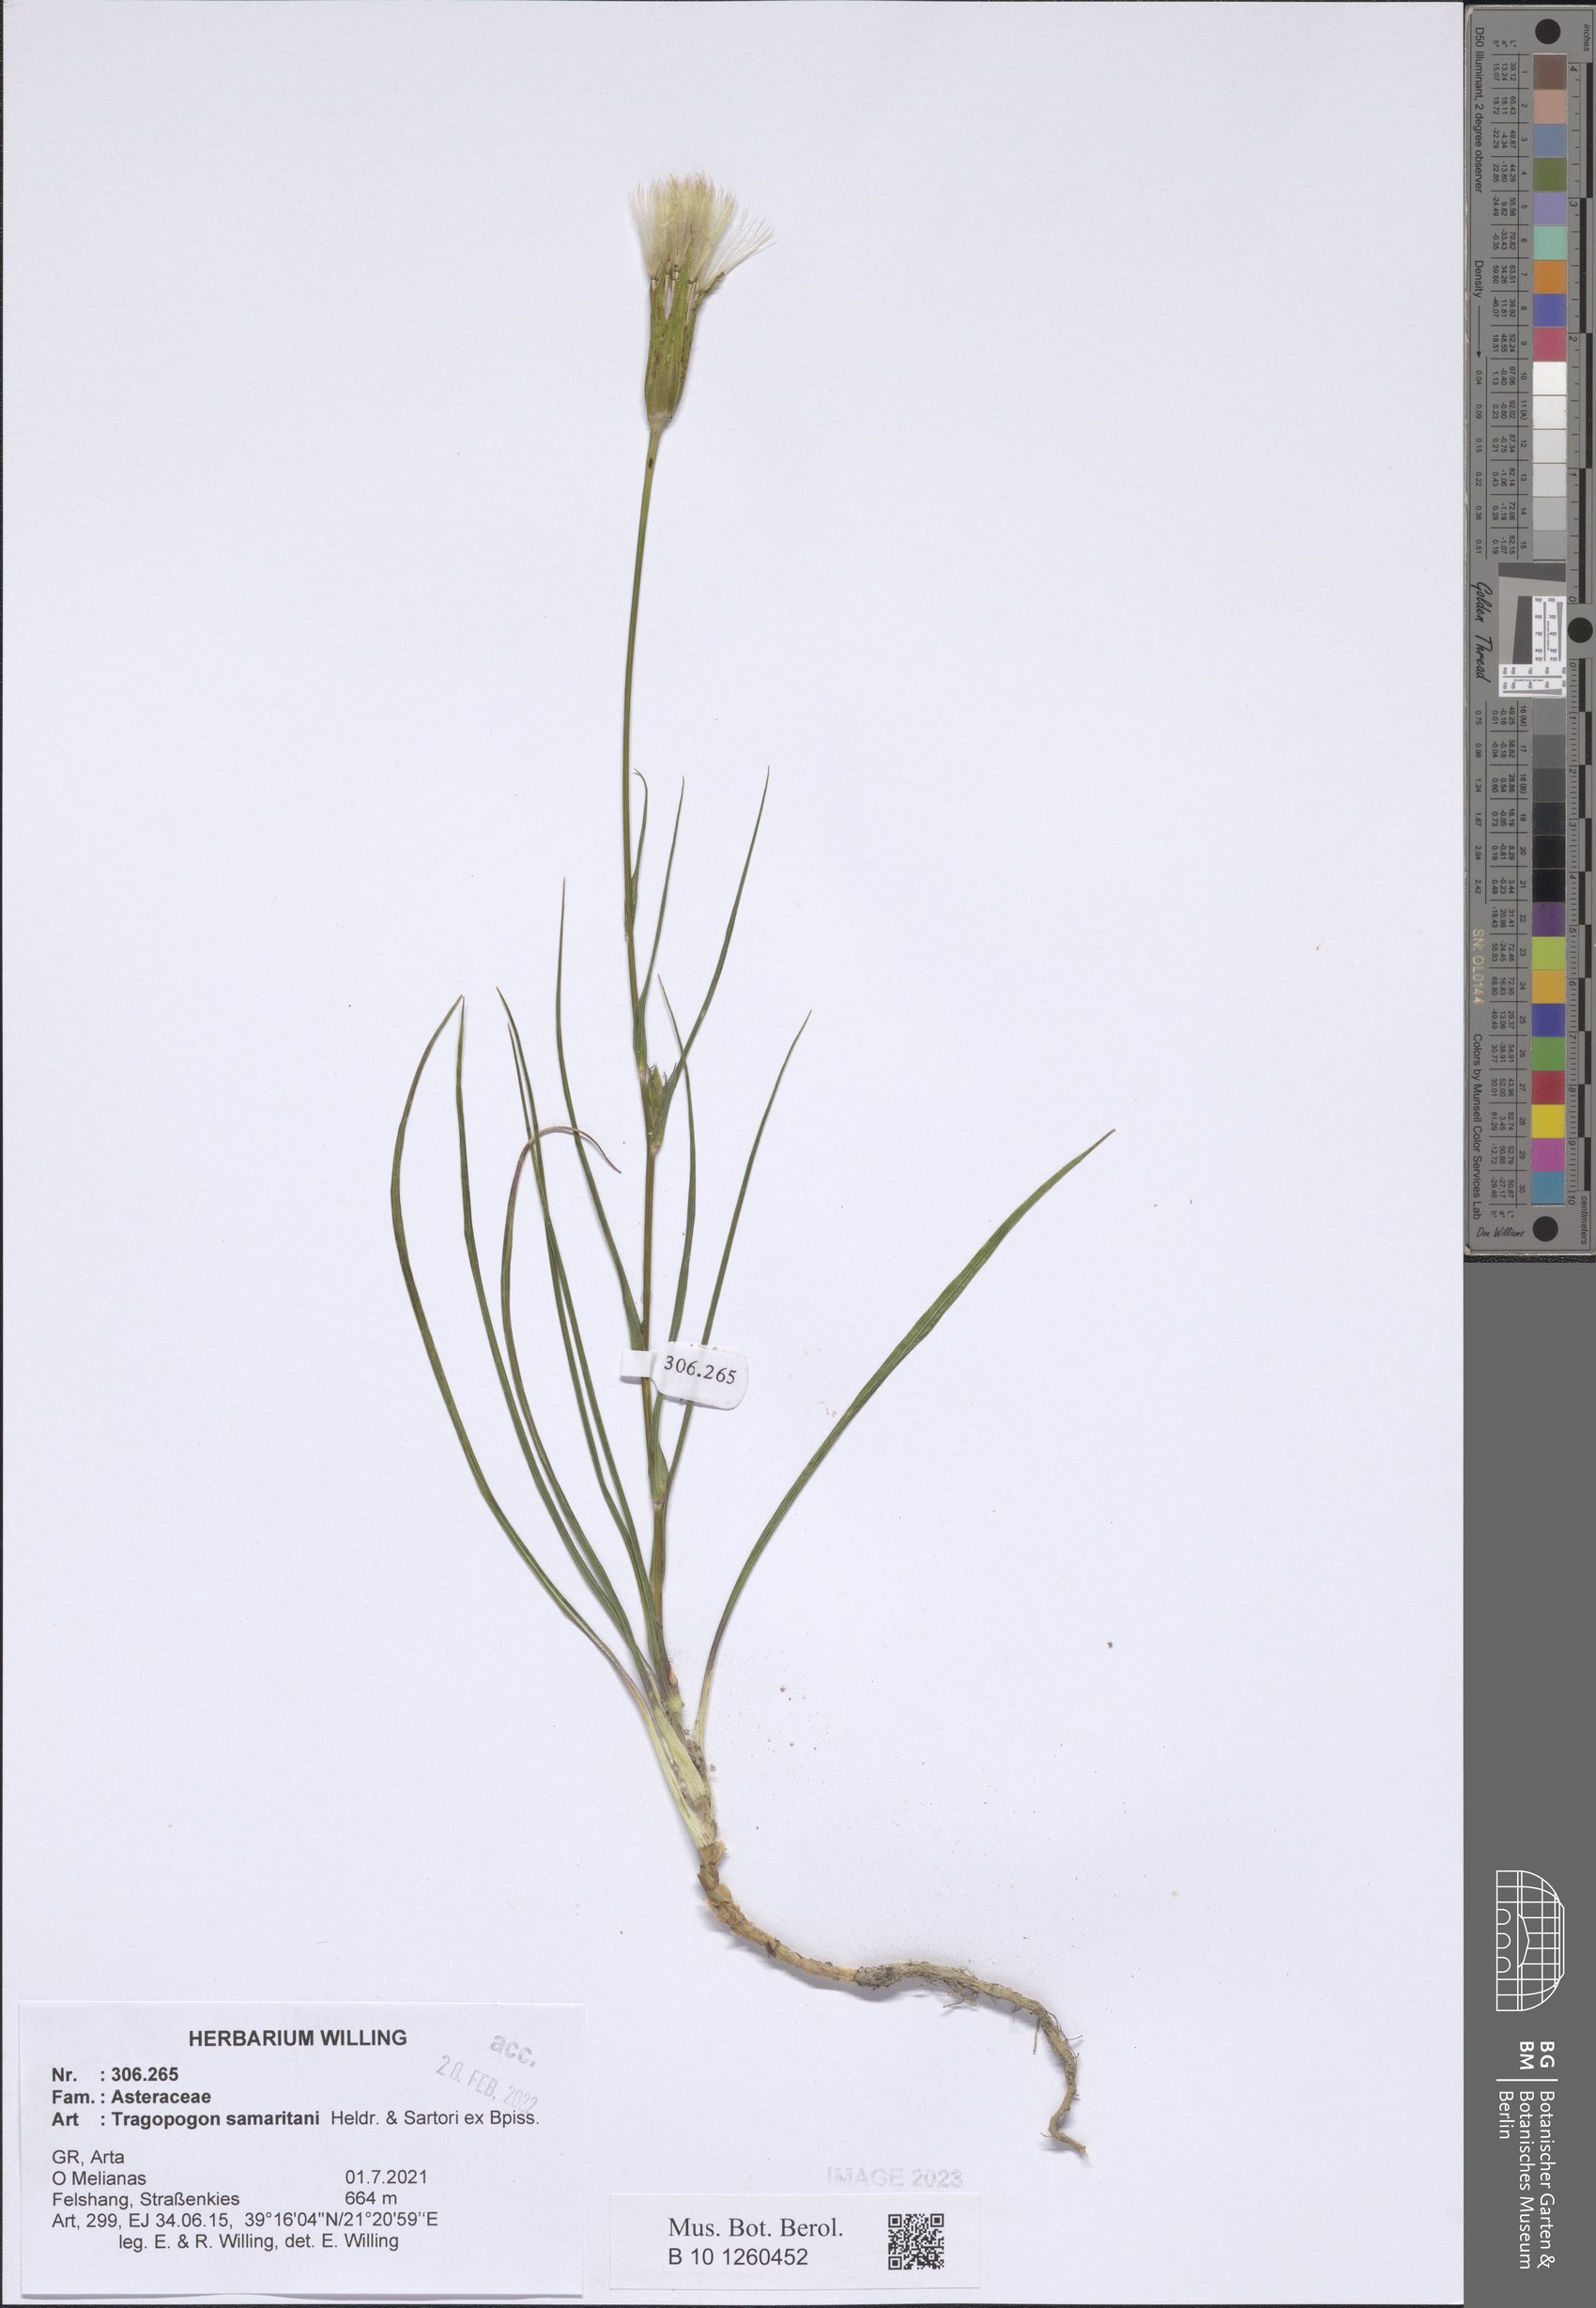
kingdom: Plantae
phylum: Tracheophyta
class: Magnoliopsida
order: Asterales
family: Asteraceae
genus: Tragopogon
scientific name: Tragopogon samaritani
